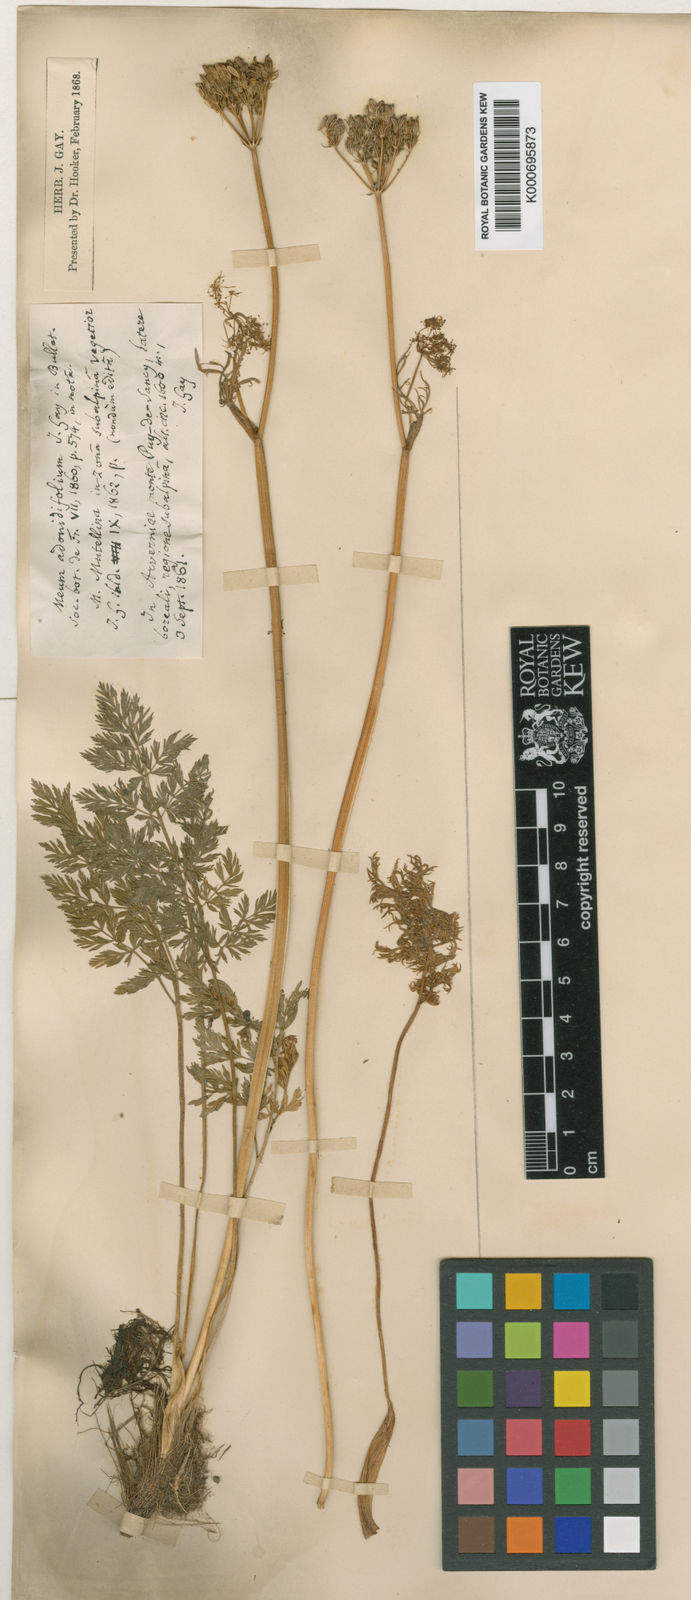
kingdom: Plantae
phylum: Tracheophyta
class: Magnoliopsida
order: Apiales
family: Apiaceae
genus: Mutellina
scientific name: Mutellina adonidifolia
